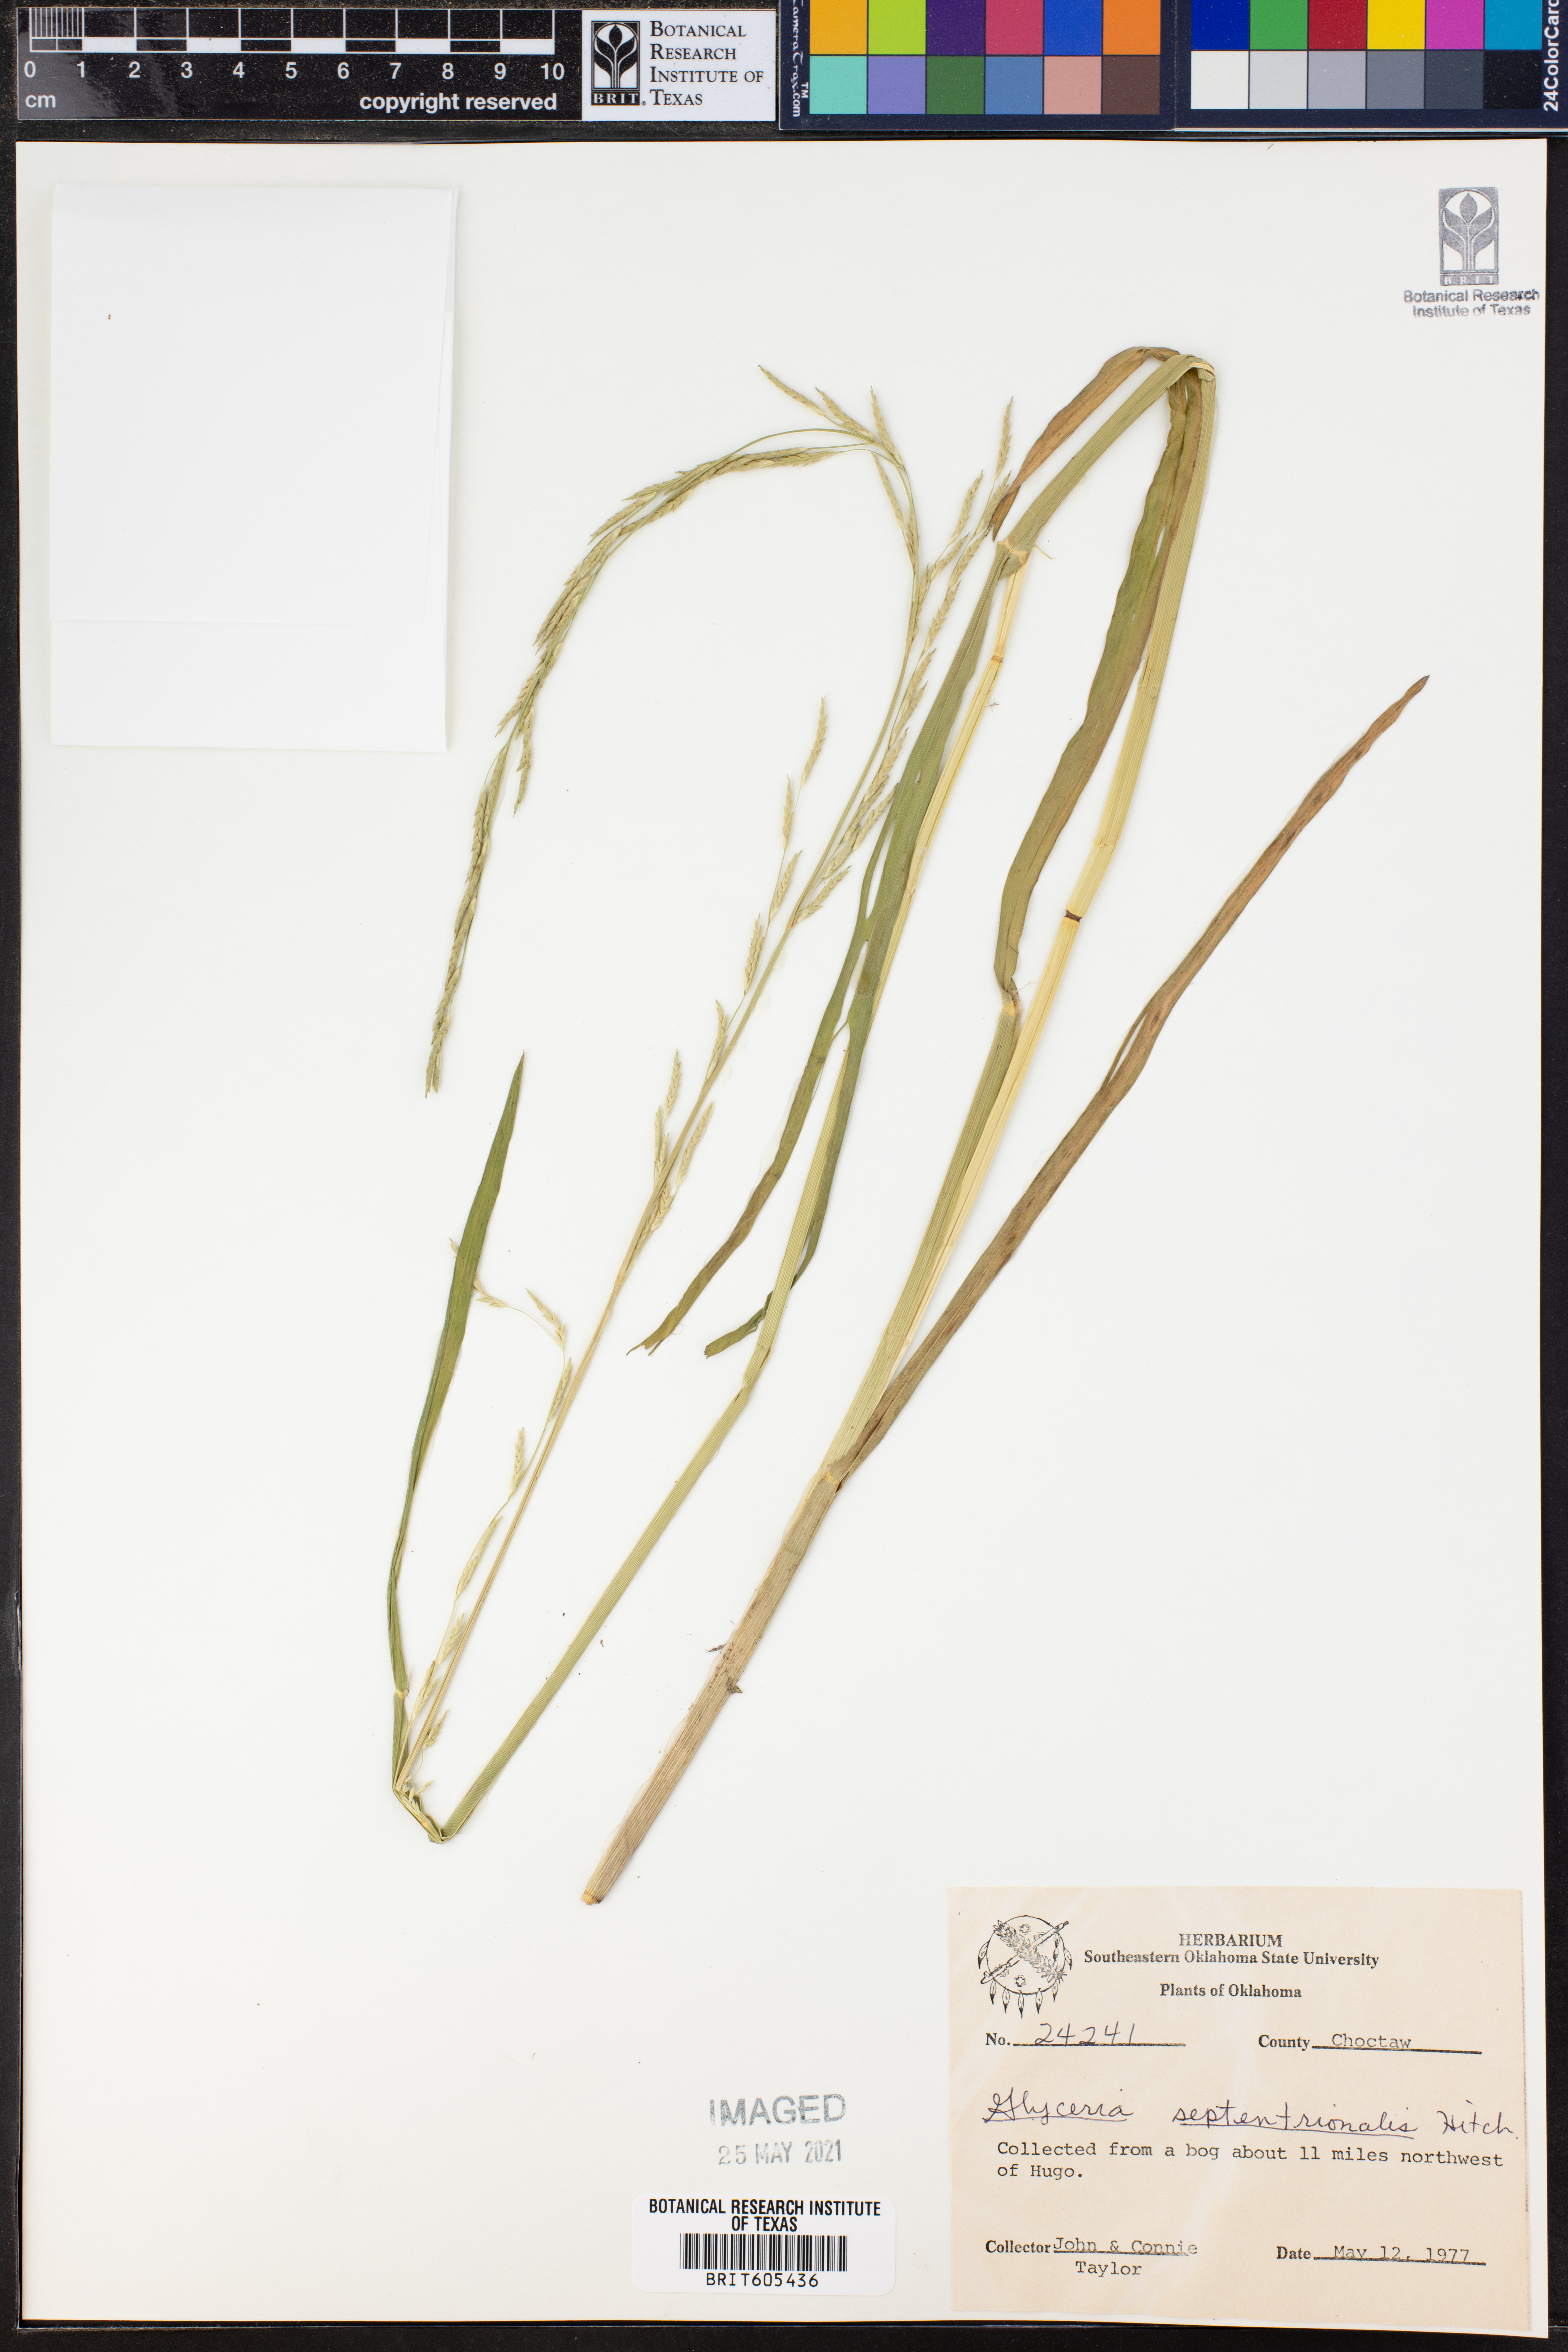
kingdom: Plantae
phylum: Tracheophyta
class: Liliopsida
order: Poales
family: Poaceae
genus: Glyceria
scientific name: Glyceria septentrionalis
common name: Eastern mannagrass
